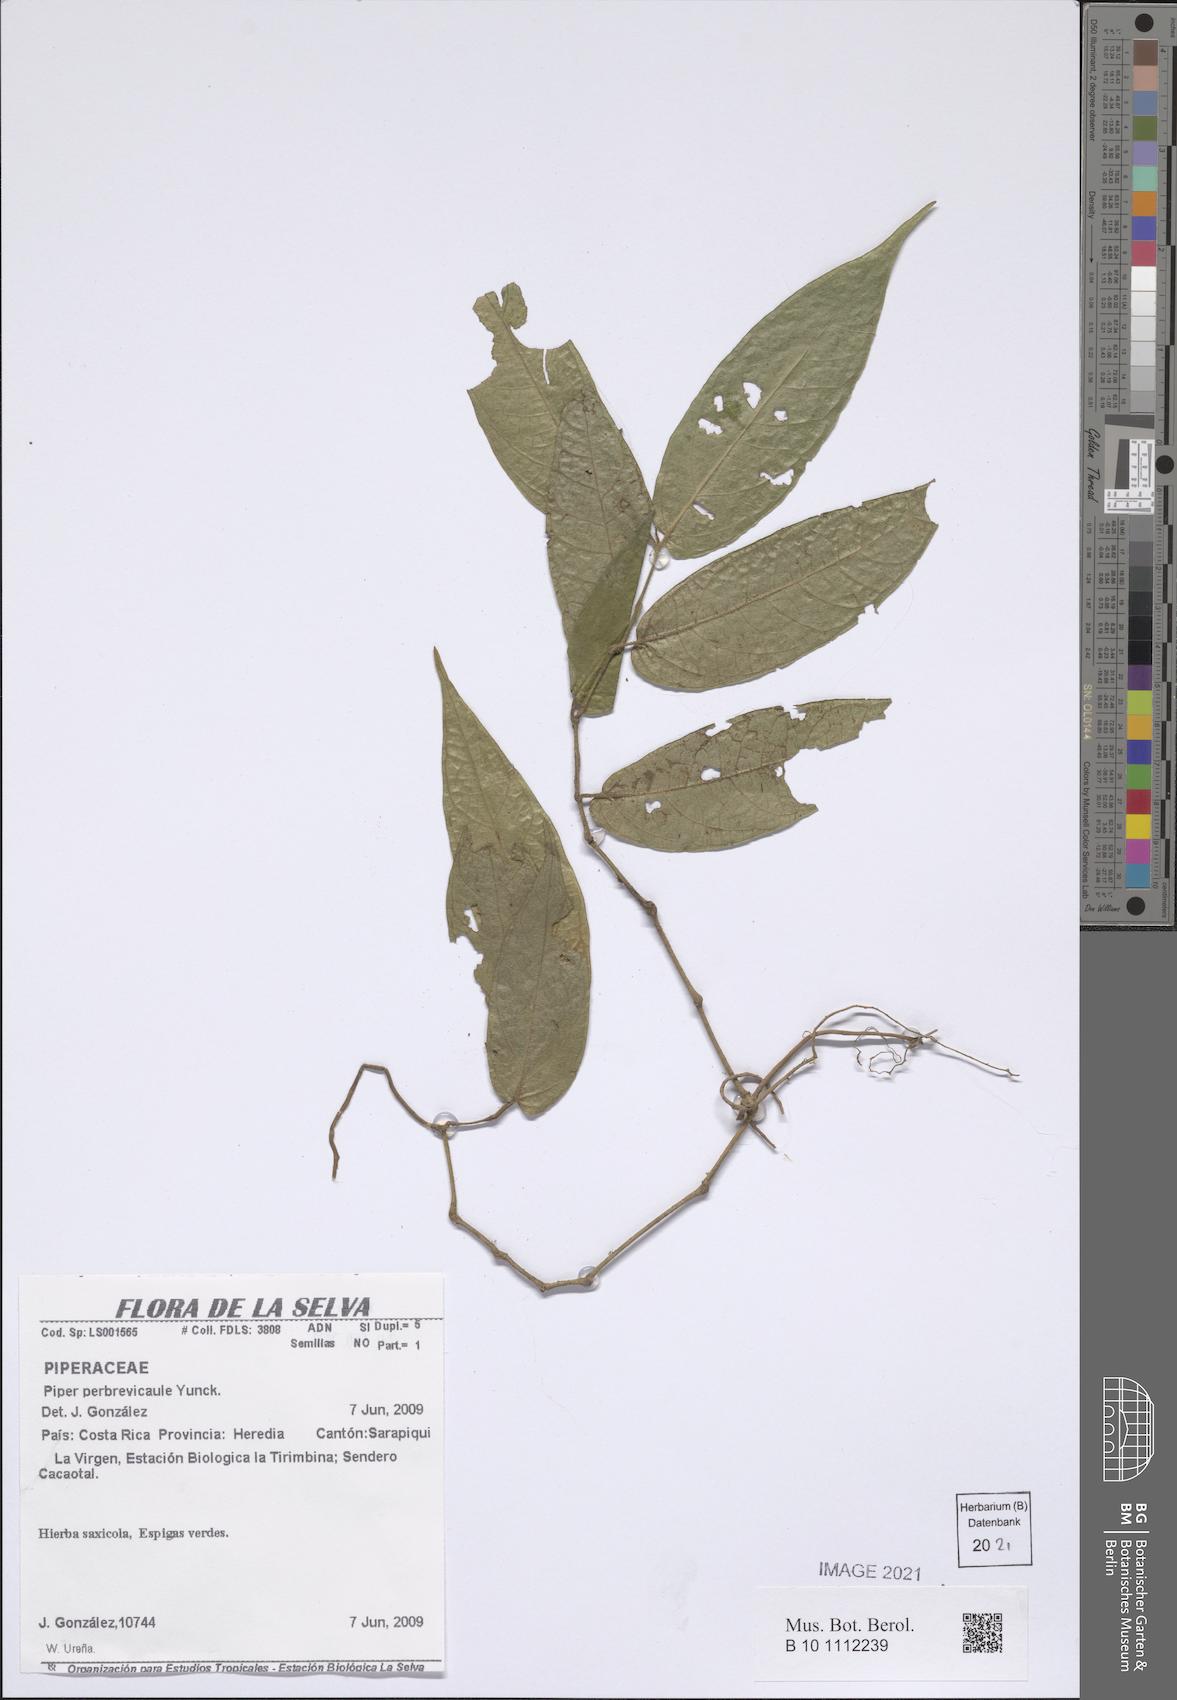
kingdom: Plantae
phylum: Tracheophyta
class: Magnoliopsida
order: Piperales
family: Piperaceae
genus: Piper
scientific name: Piper perbrevicaule
